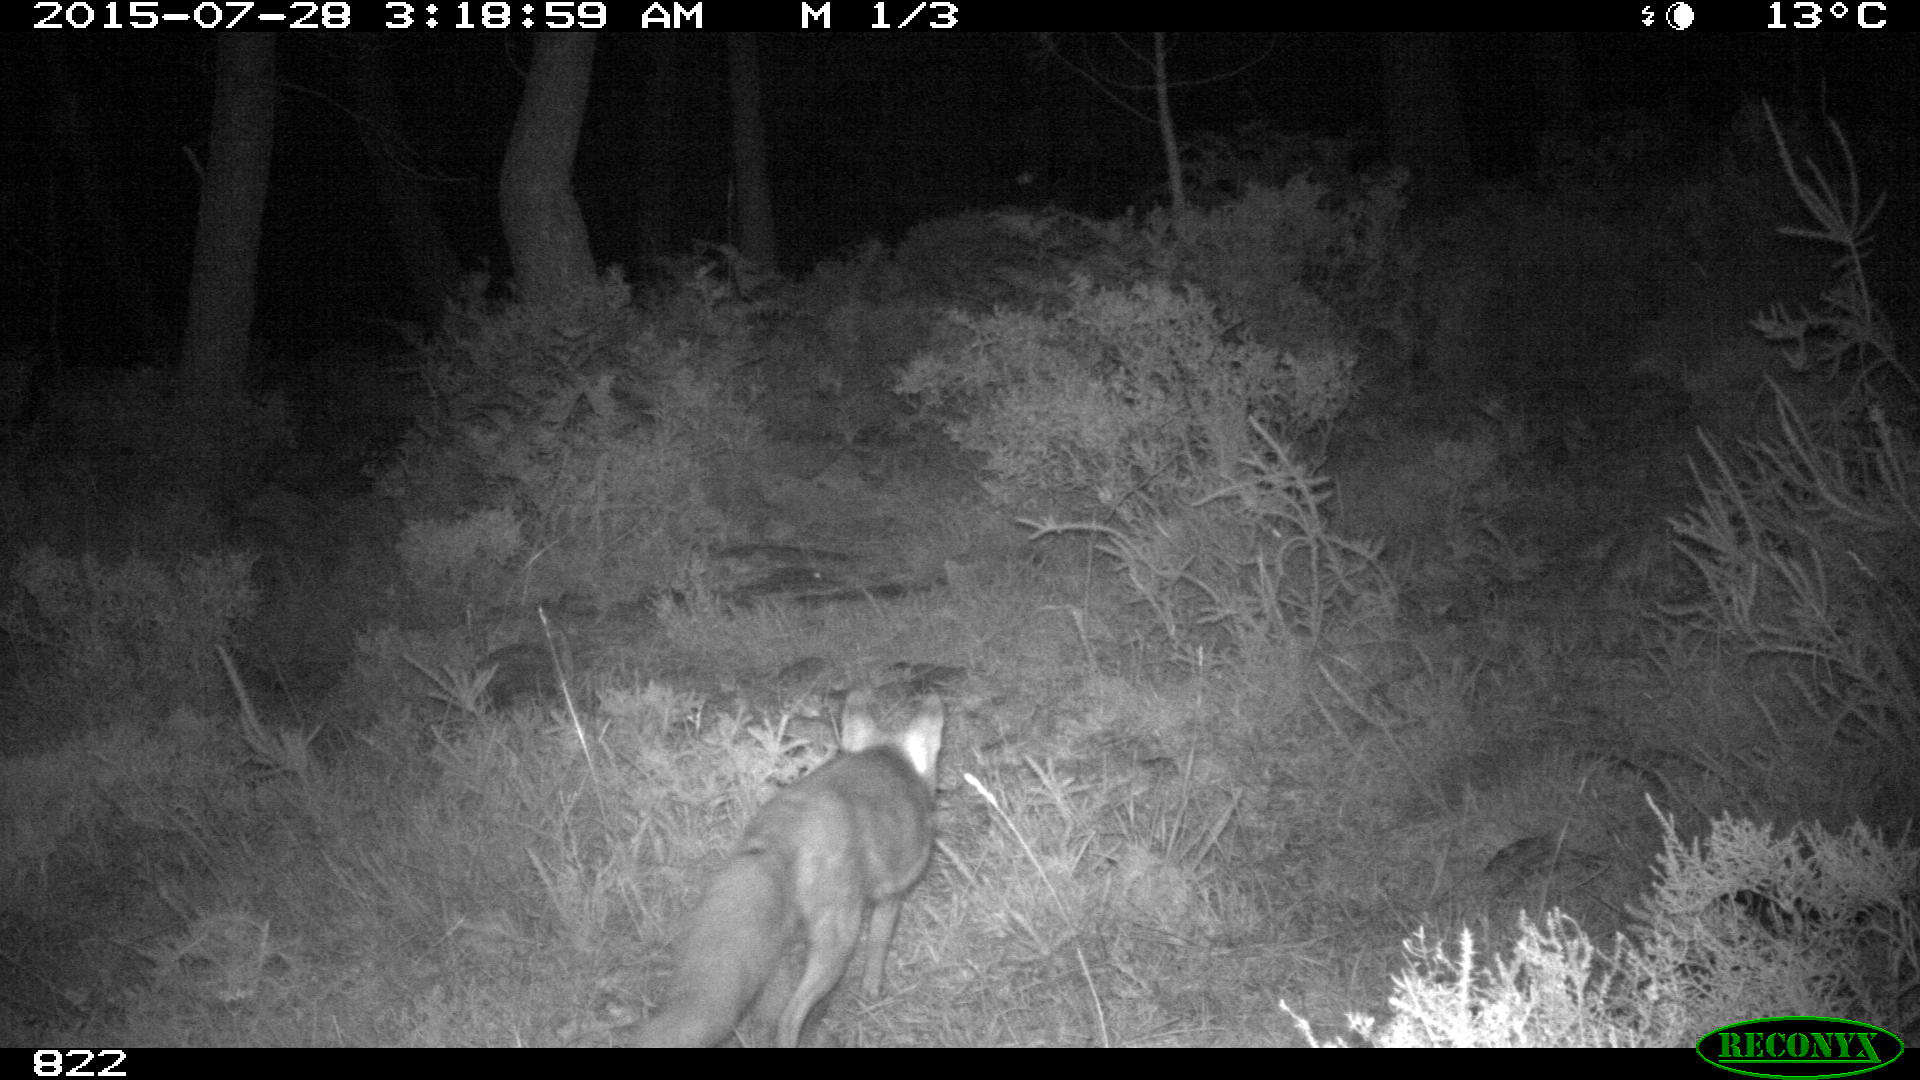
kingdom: Animalia
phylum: Chordata
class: Mammalia
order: Carnivora
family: Canidae
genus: Vulpes
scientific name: Vulpes vulpes
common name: Red fox
